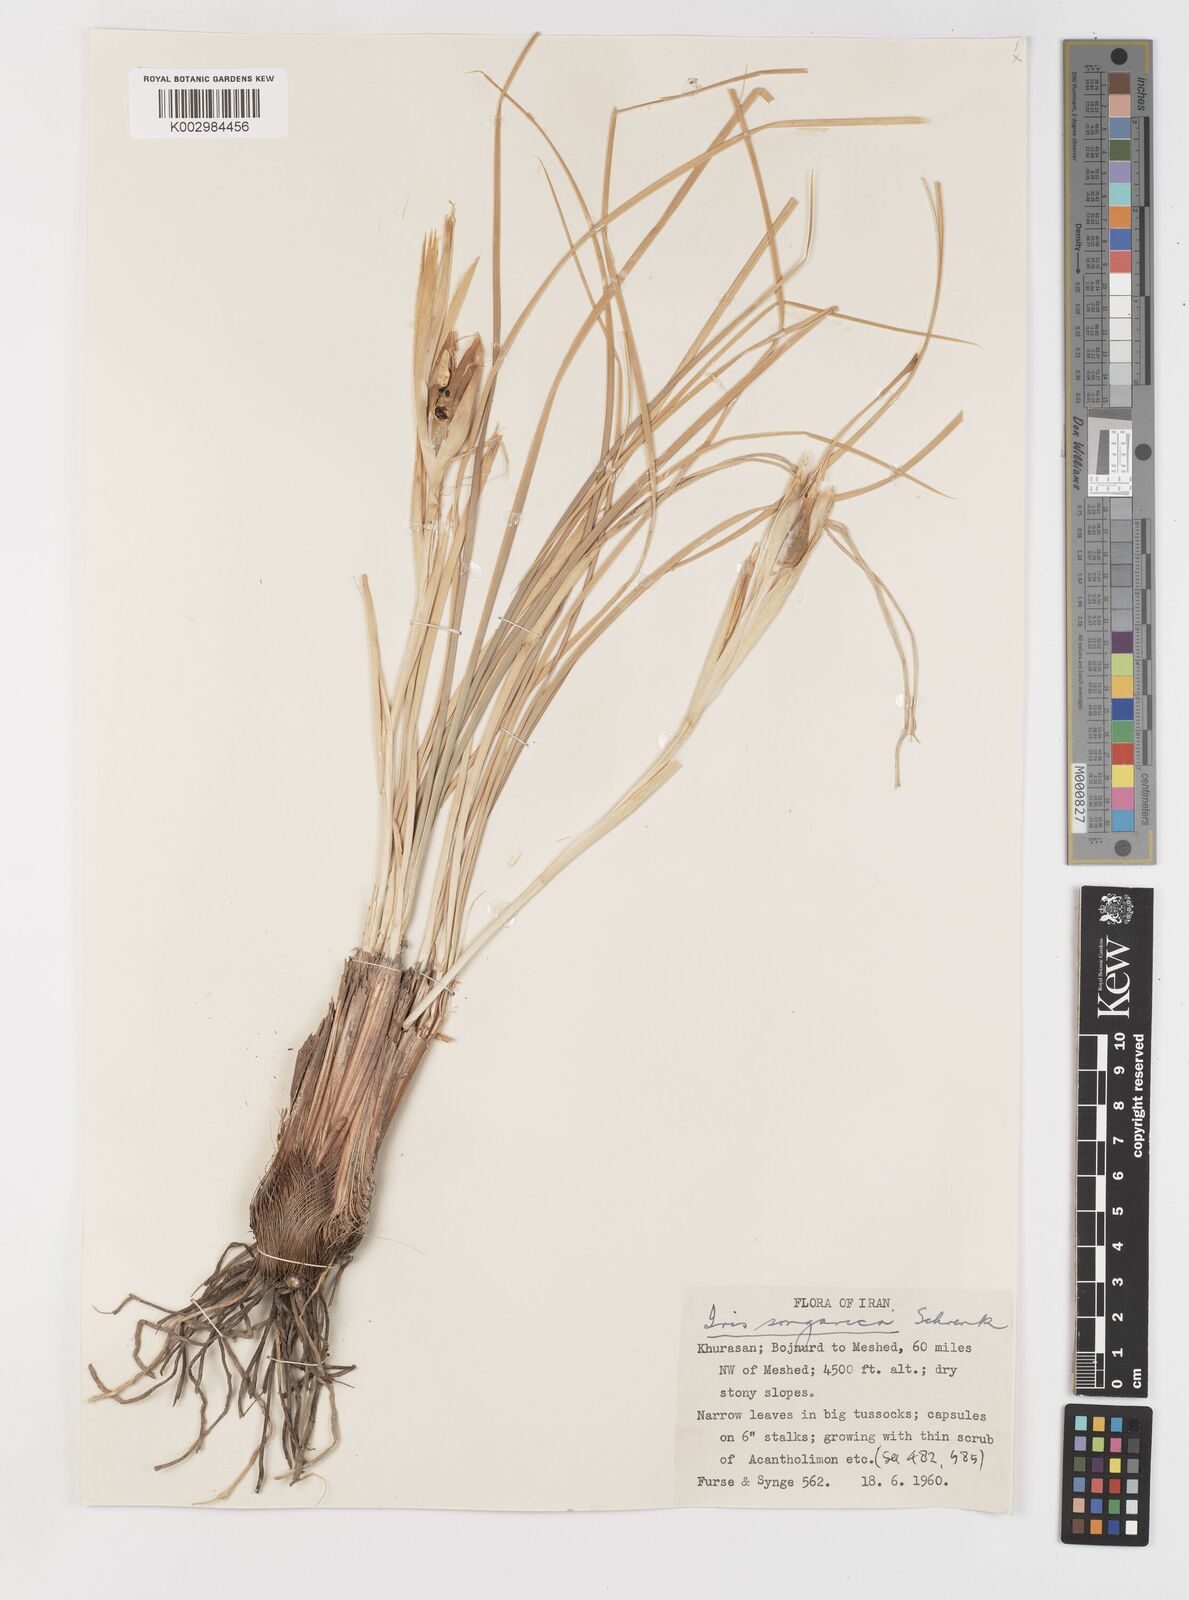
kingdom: Plantae
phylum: Tracheophyta
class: Liliopsida
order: Asparagales
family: Iridaceae
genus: Iris
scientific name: Iris songarica
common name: Songar iris
